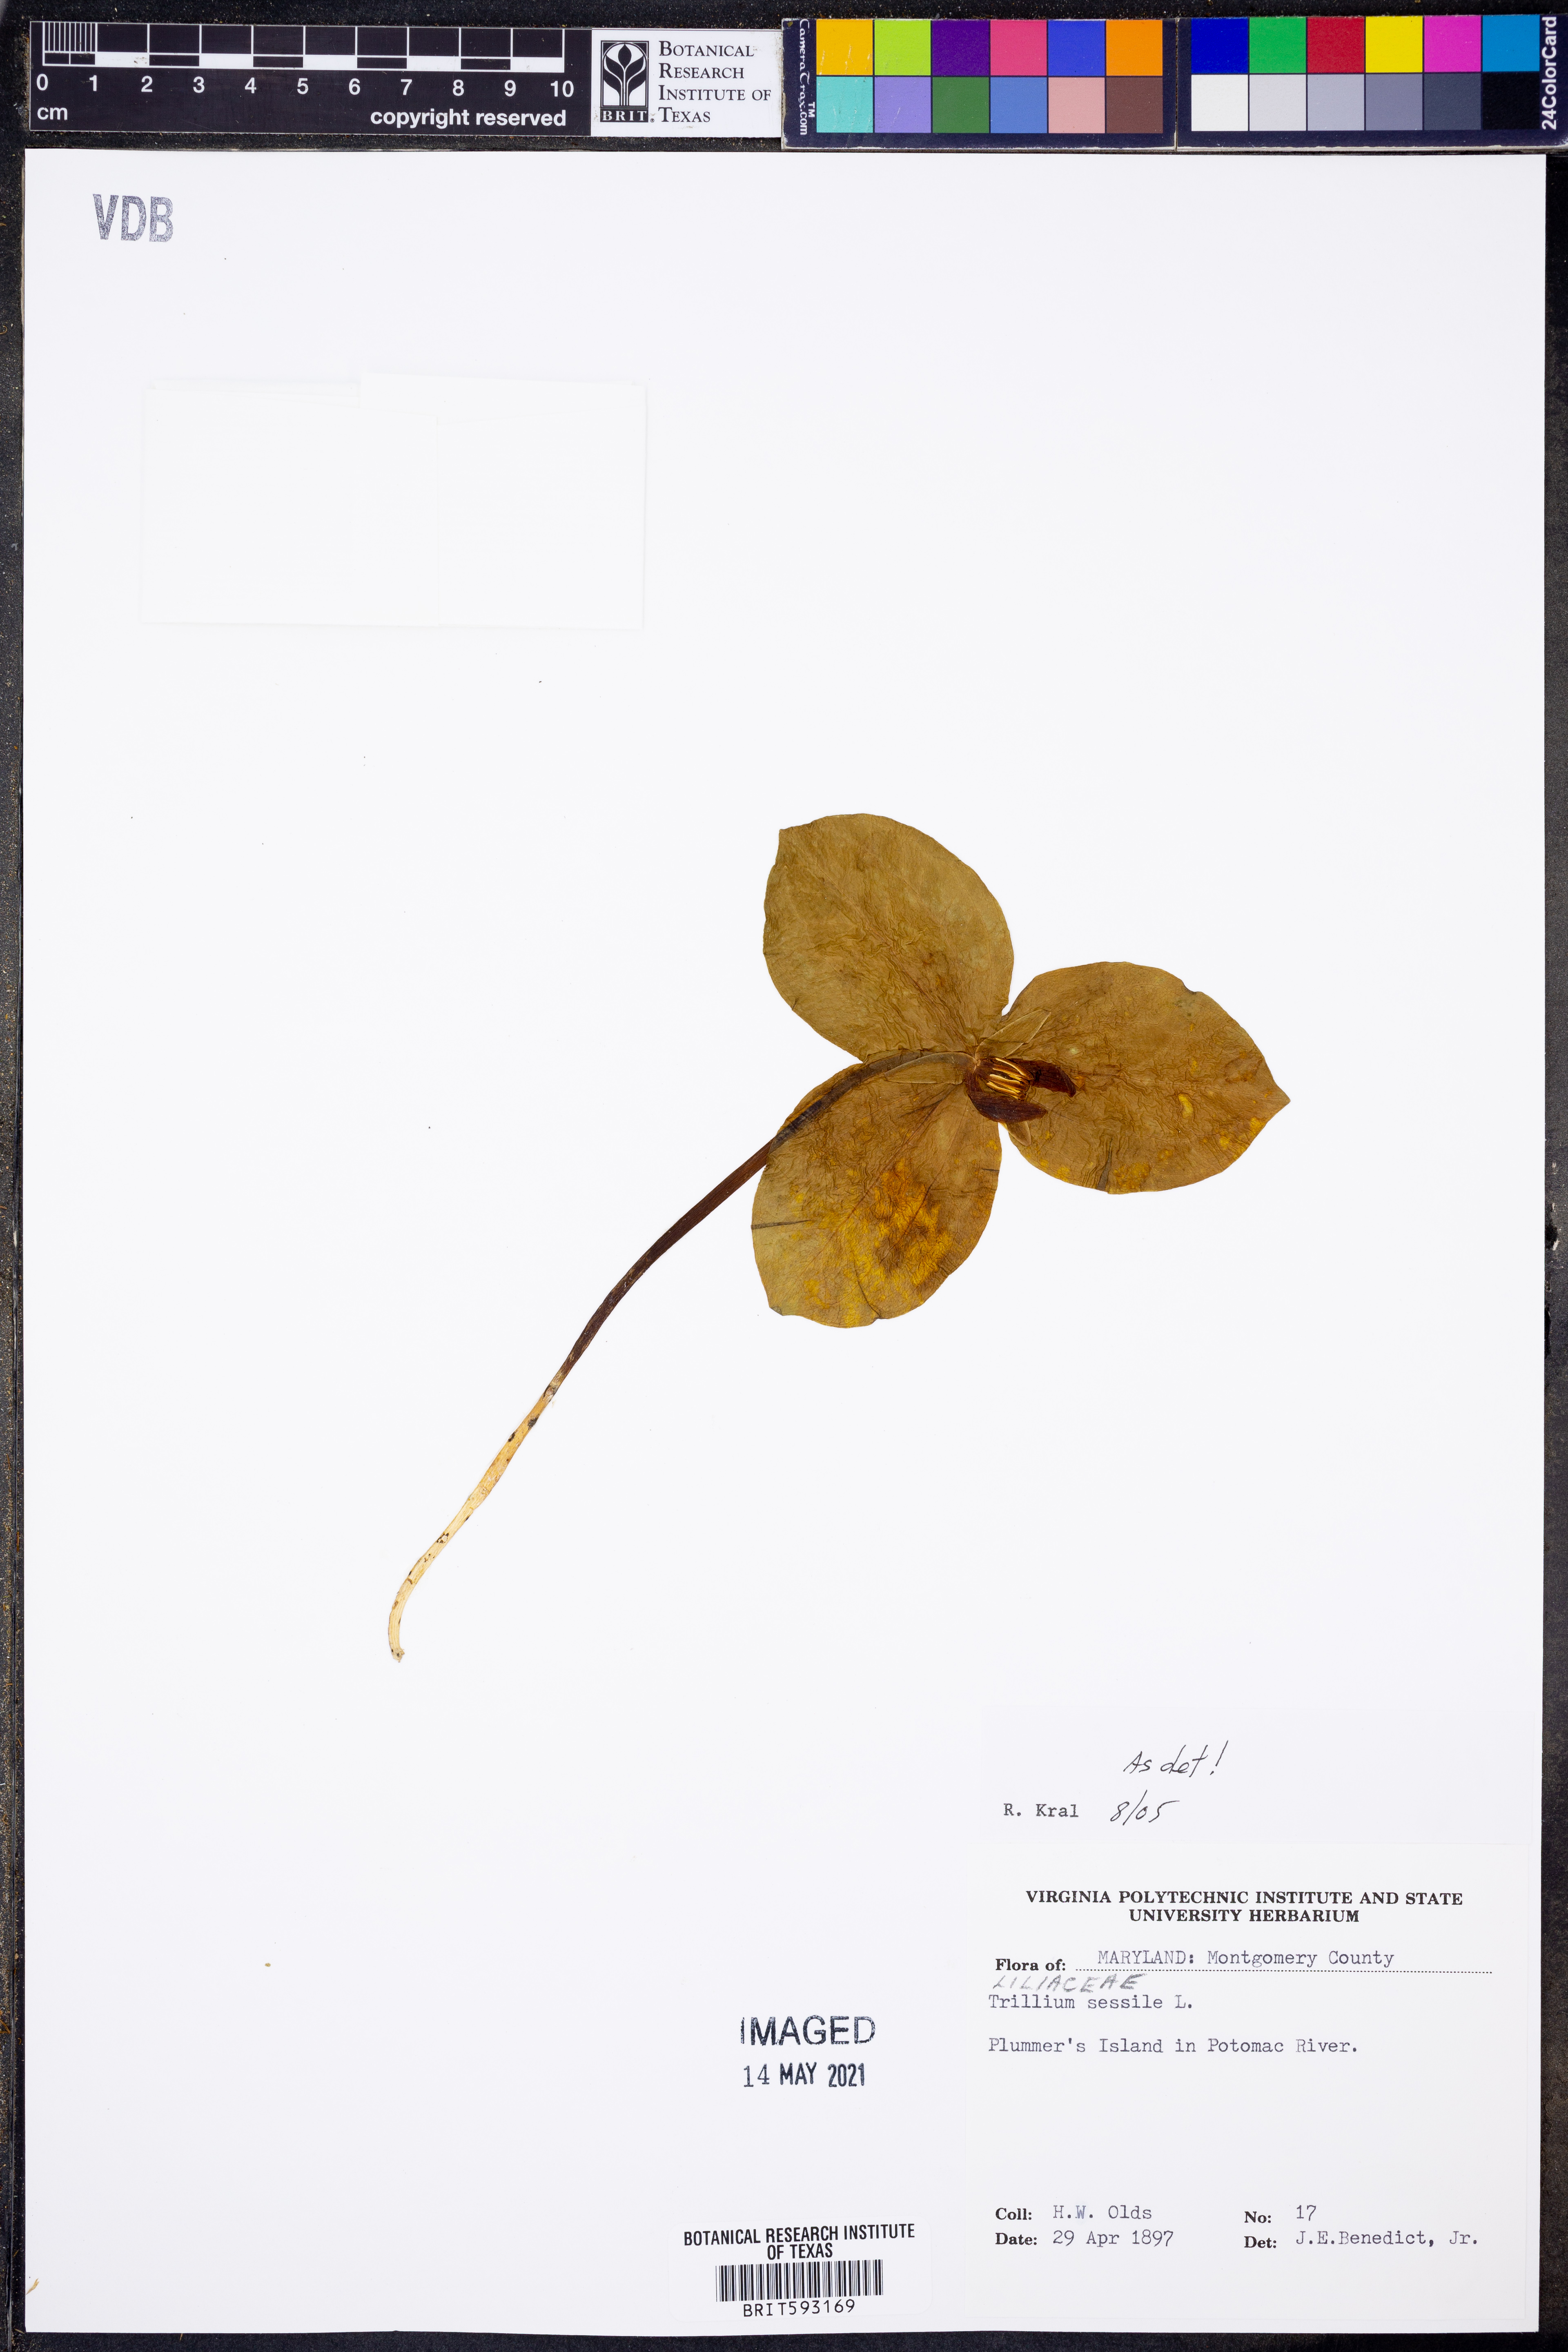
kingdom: Plantae
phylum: Tracheophyta
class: Liliopsida
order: Liliales
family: Melanthiaceae
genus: Trillium
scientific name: Trillium sessile
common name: Sessile trillium
